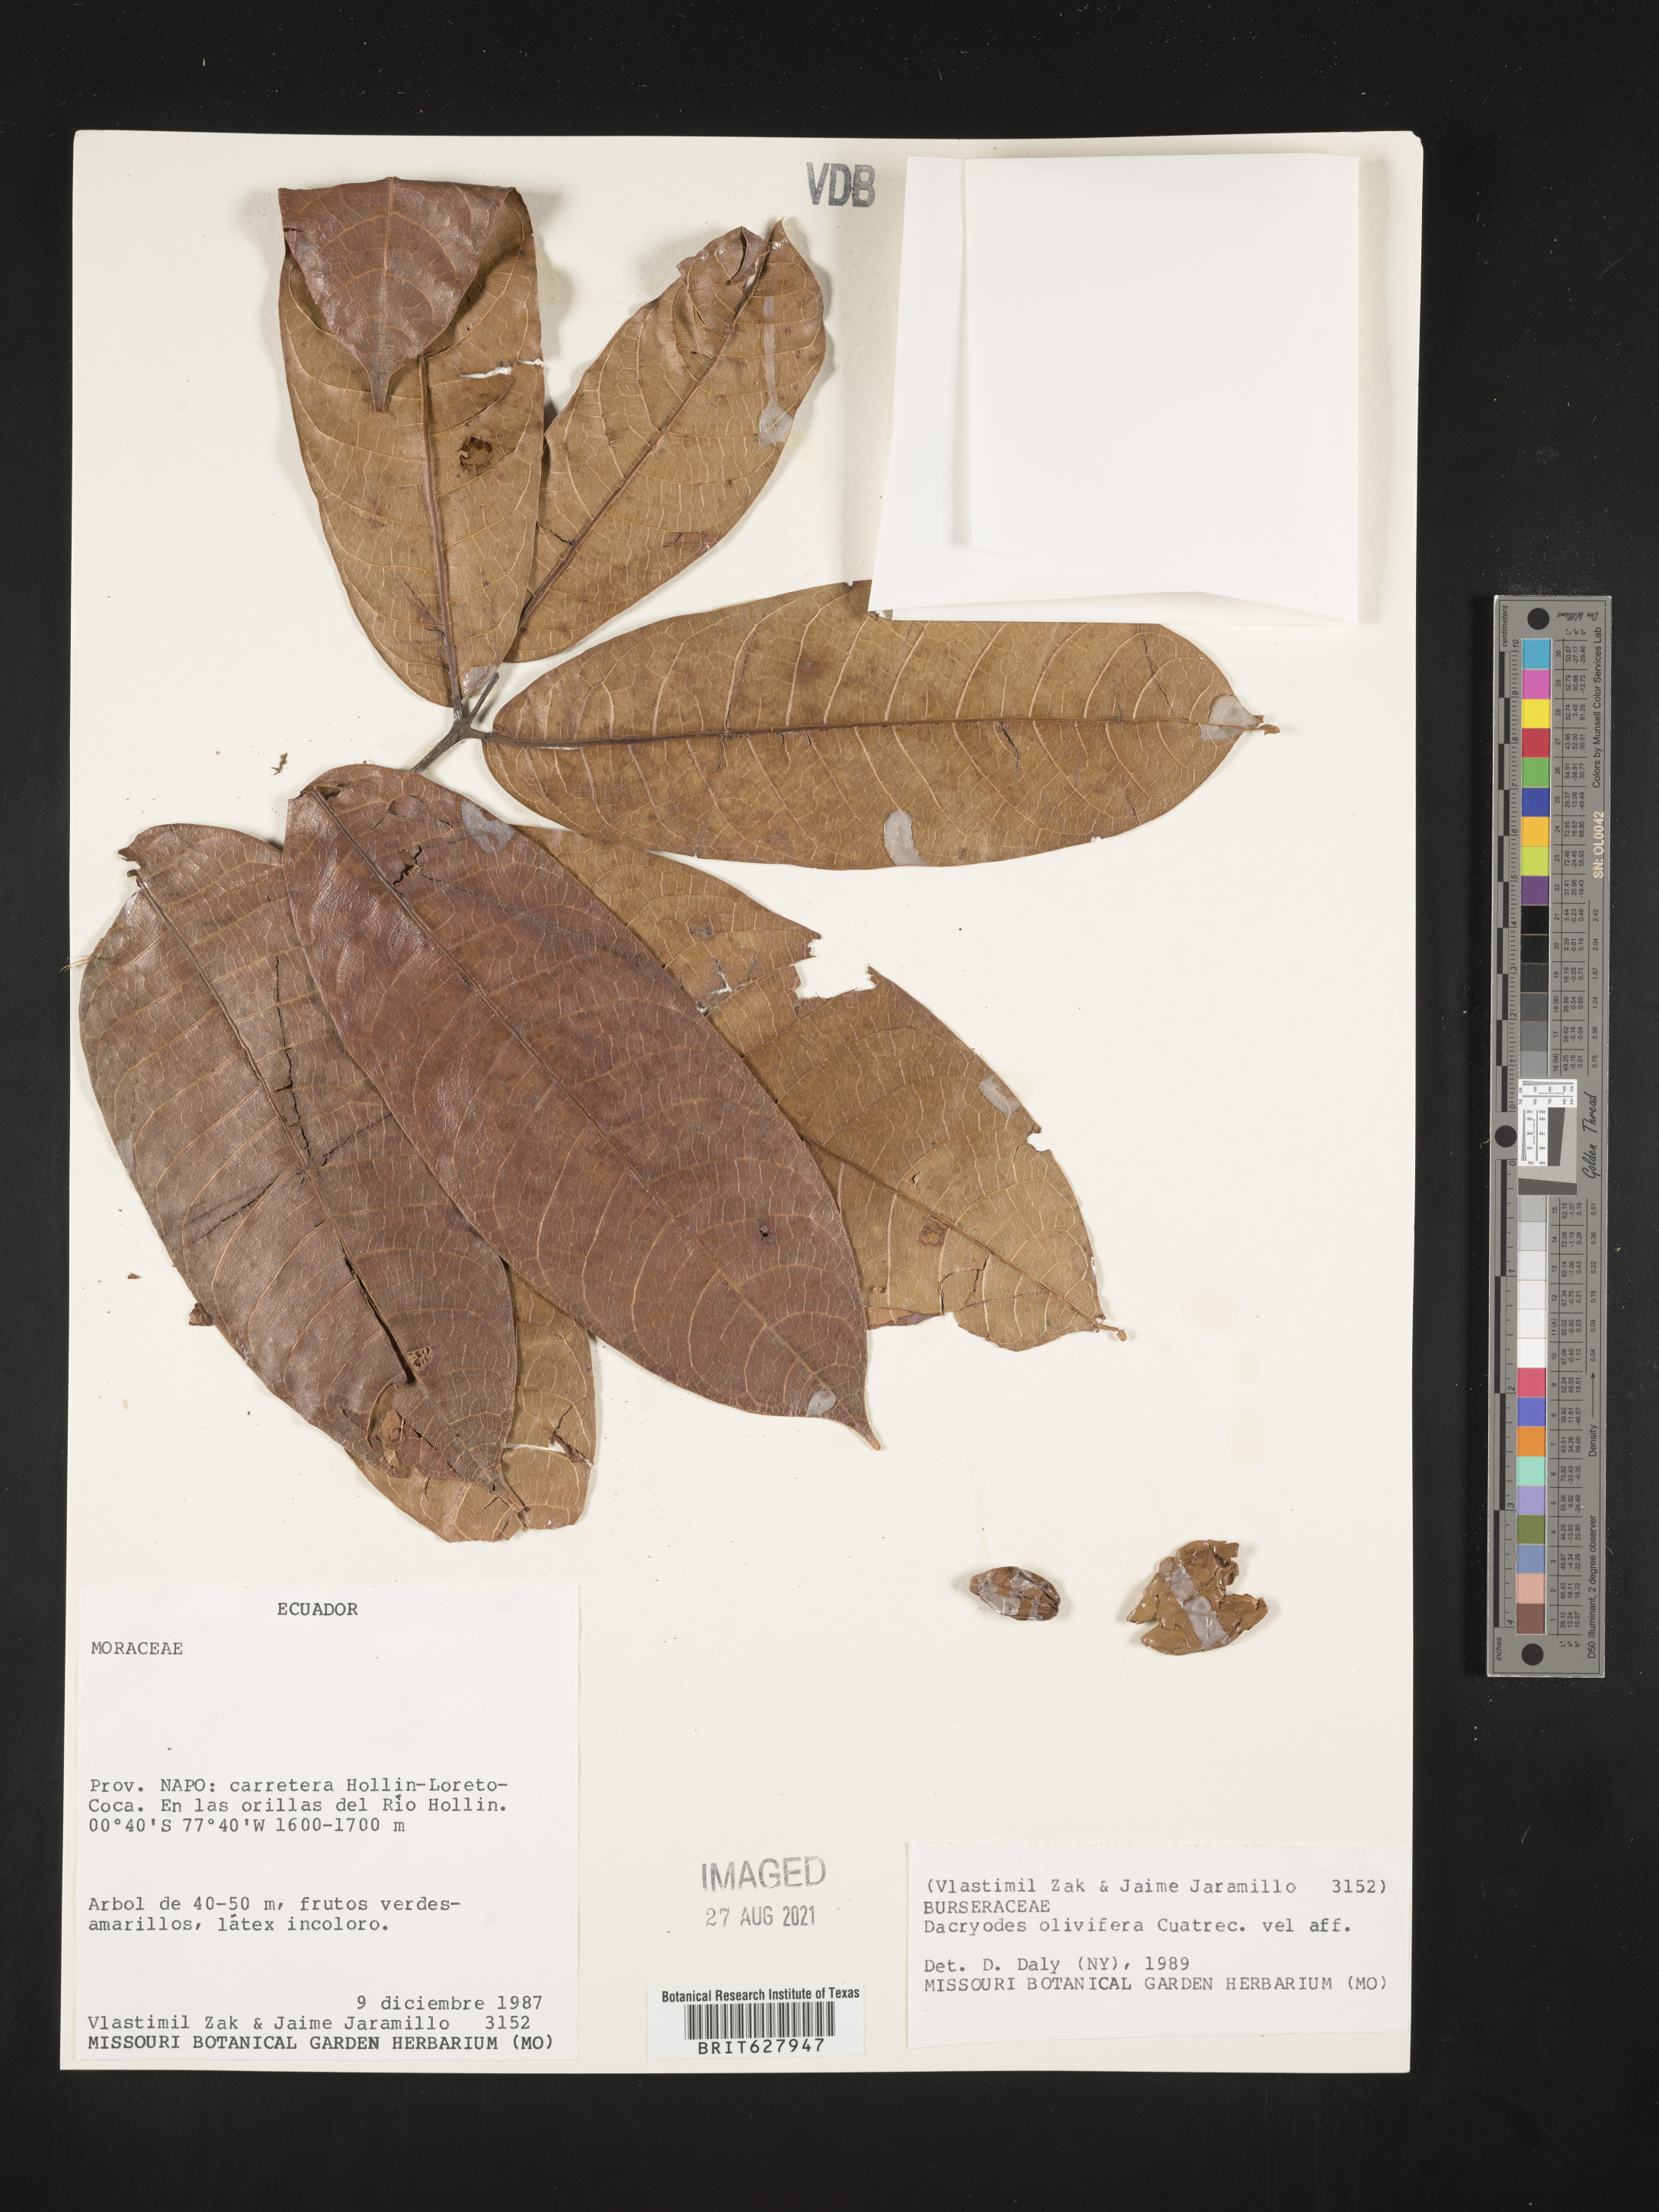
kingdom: Plantae
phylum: Tracheophyta
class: Magnoliopsida
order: Sapindales
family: Burseraceae
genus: Dacryodes
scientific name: Dacryodes olivifera
